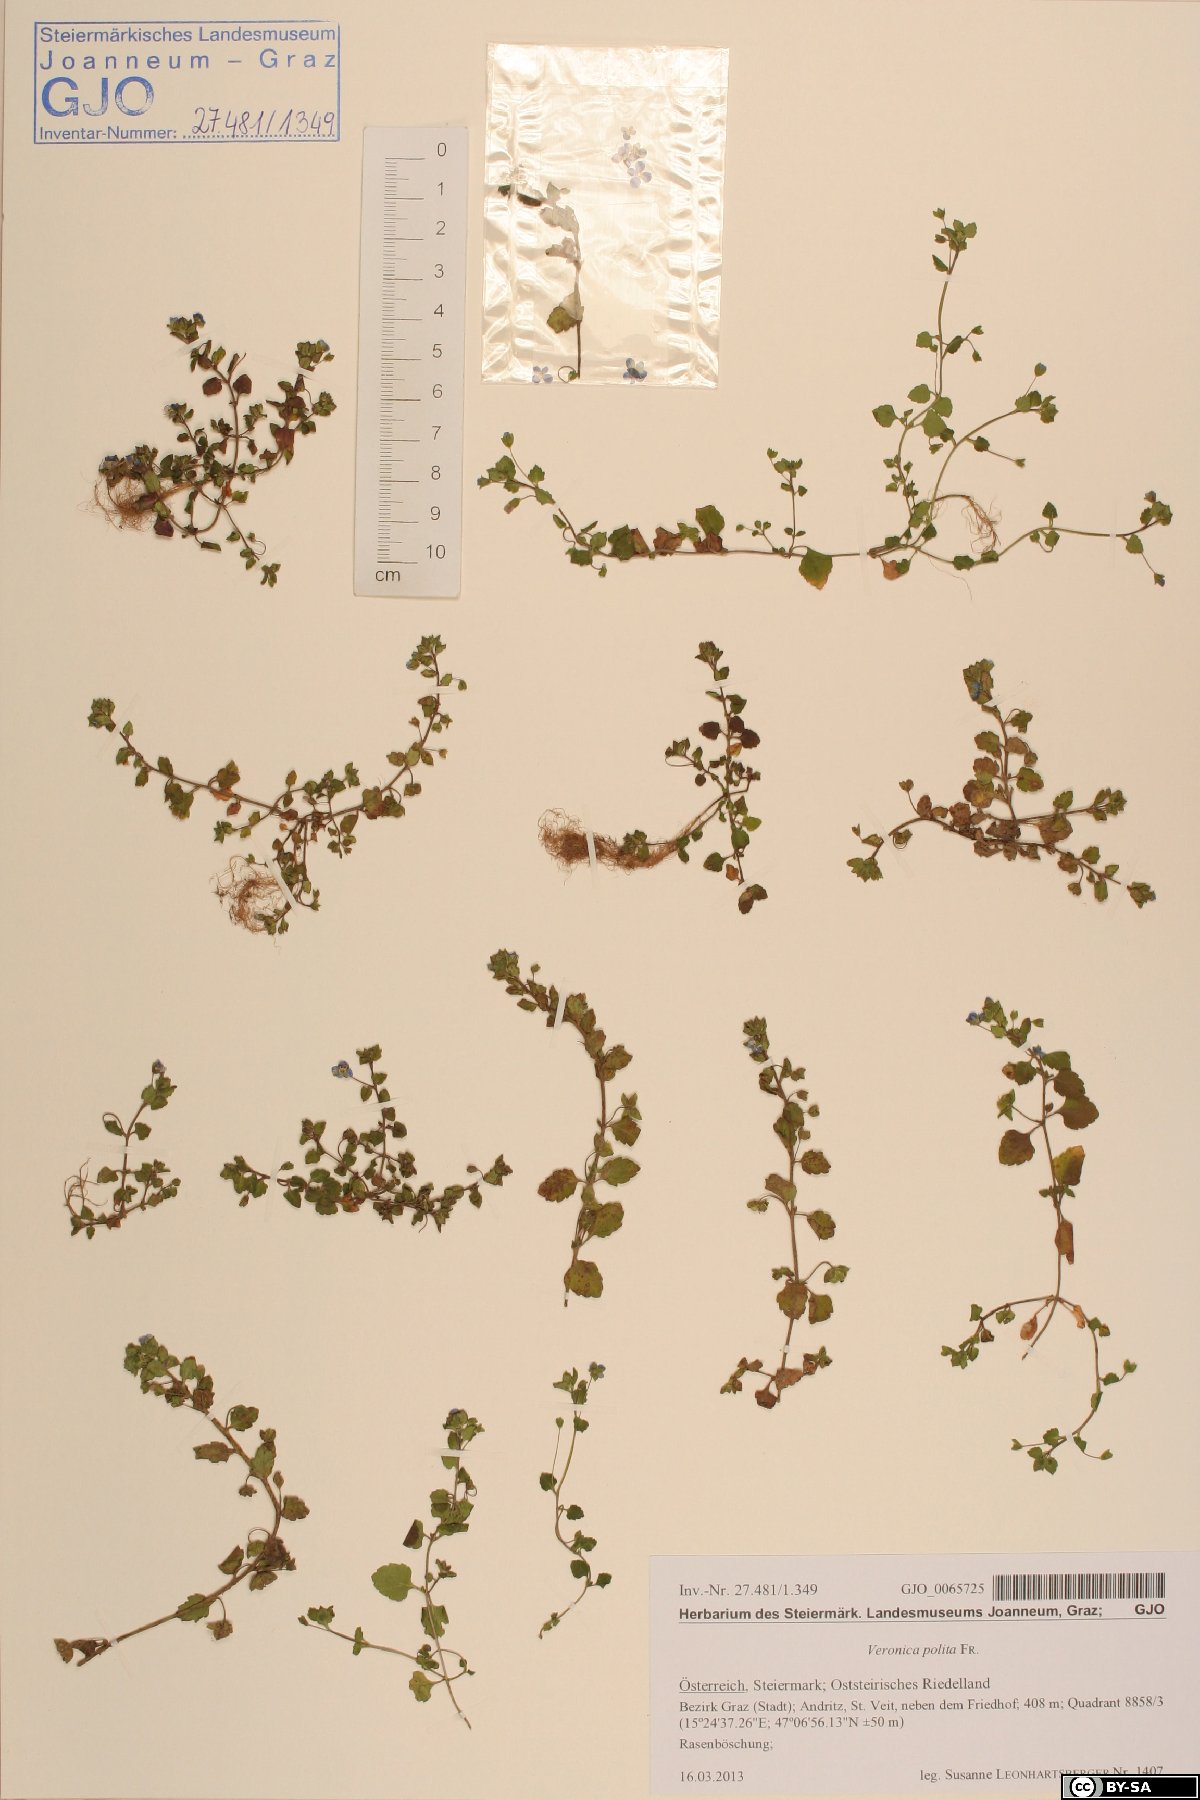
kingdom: Plantae
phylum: Tracheophyta
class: Magnoliopsida
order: Lamiales
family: Plantaginaceae
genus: Veronica
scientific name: Veronica polita
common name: Grey field-speedwell
